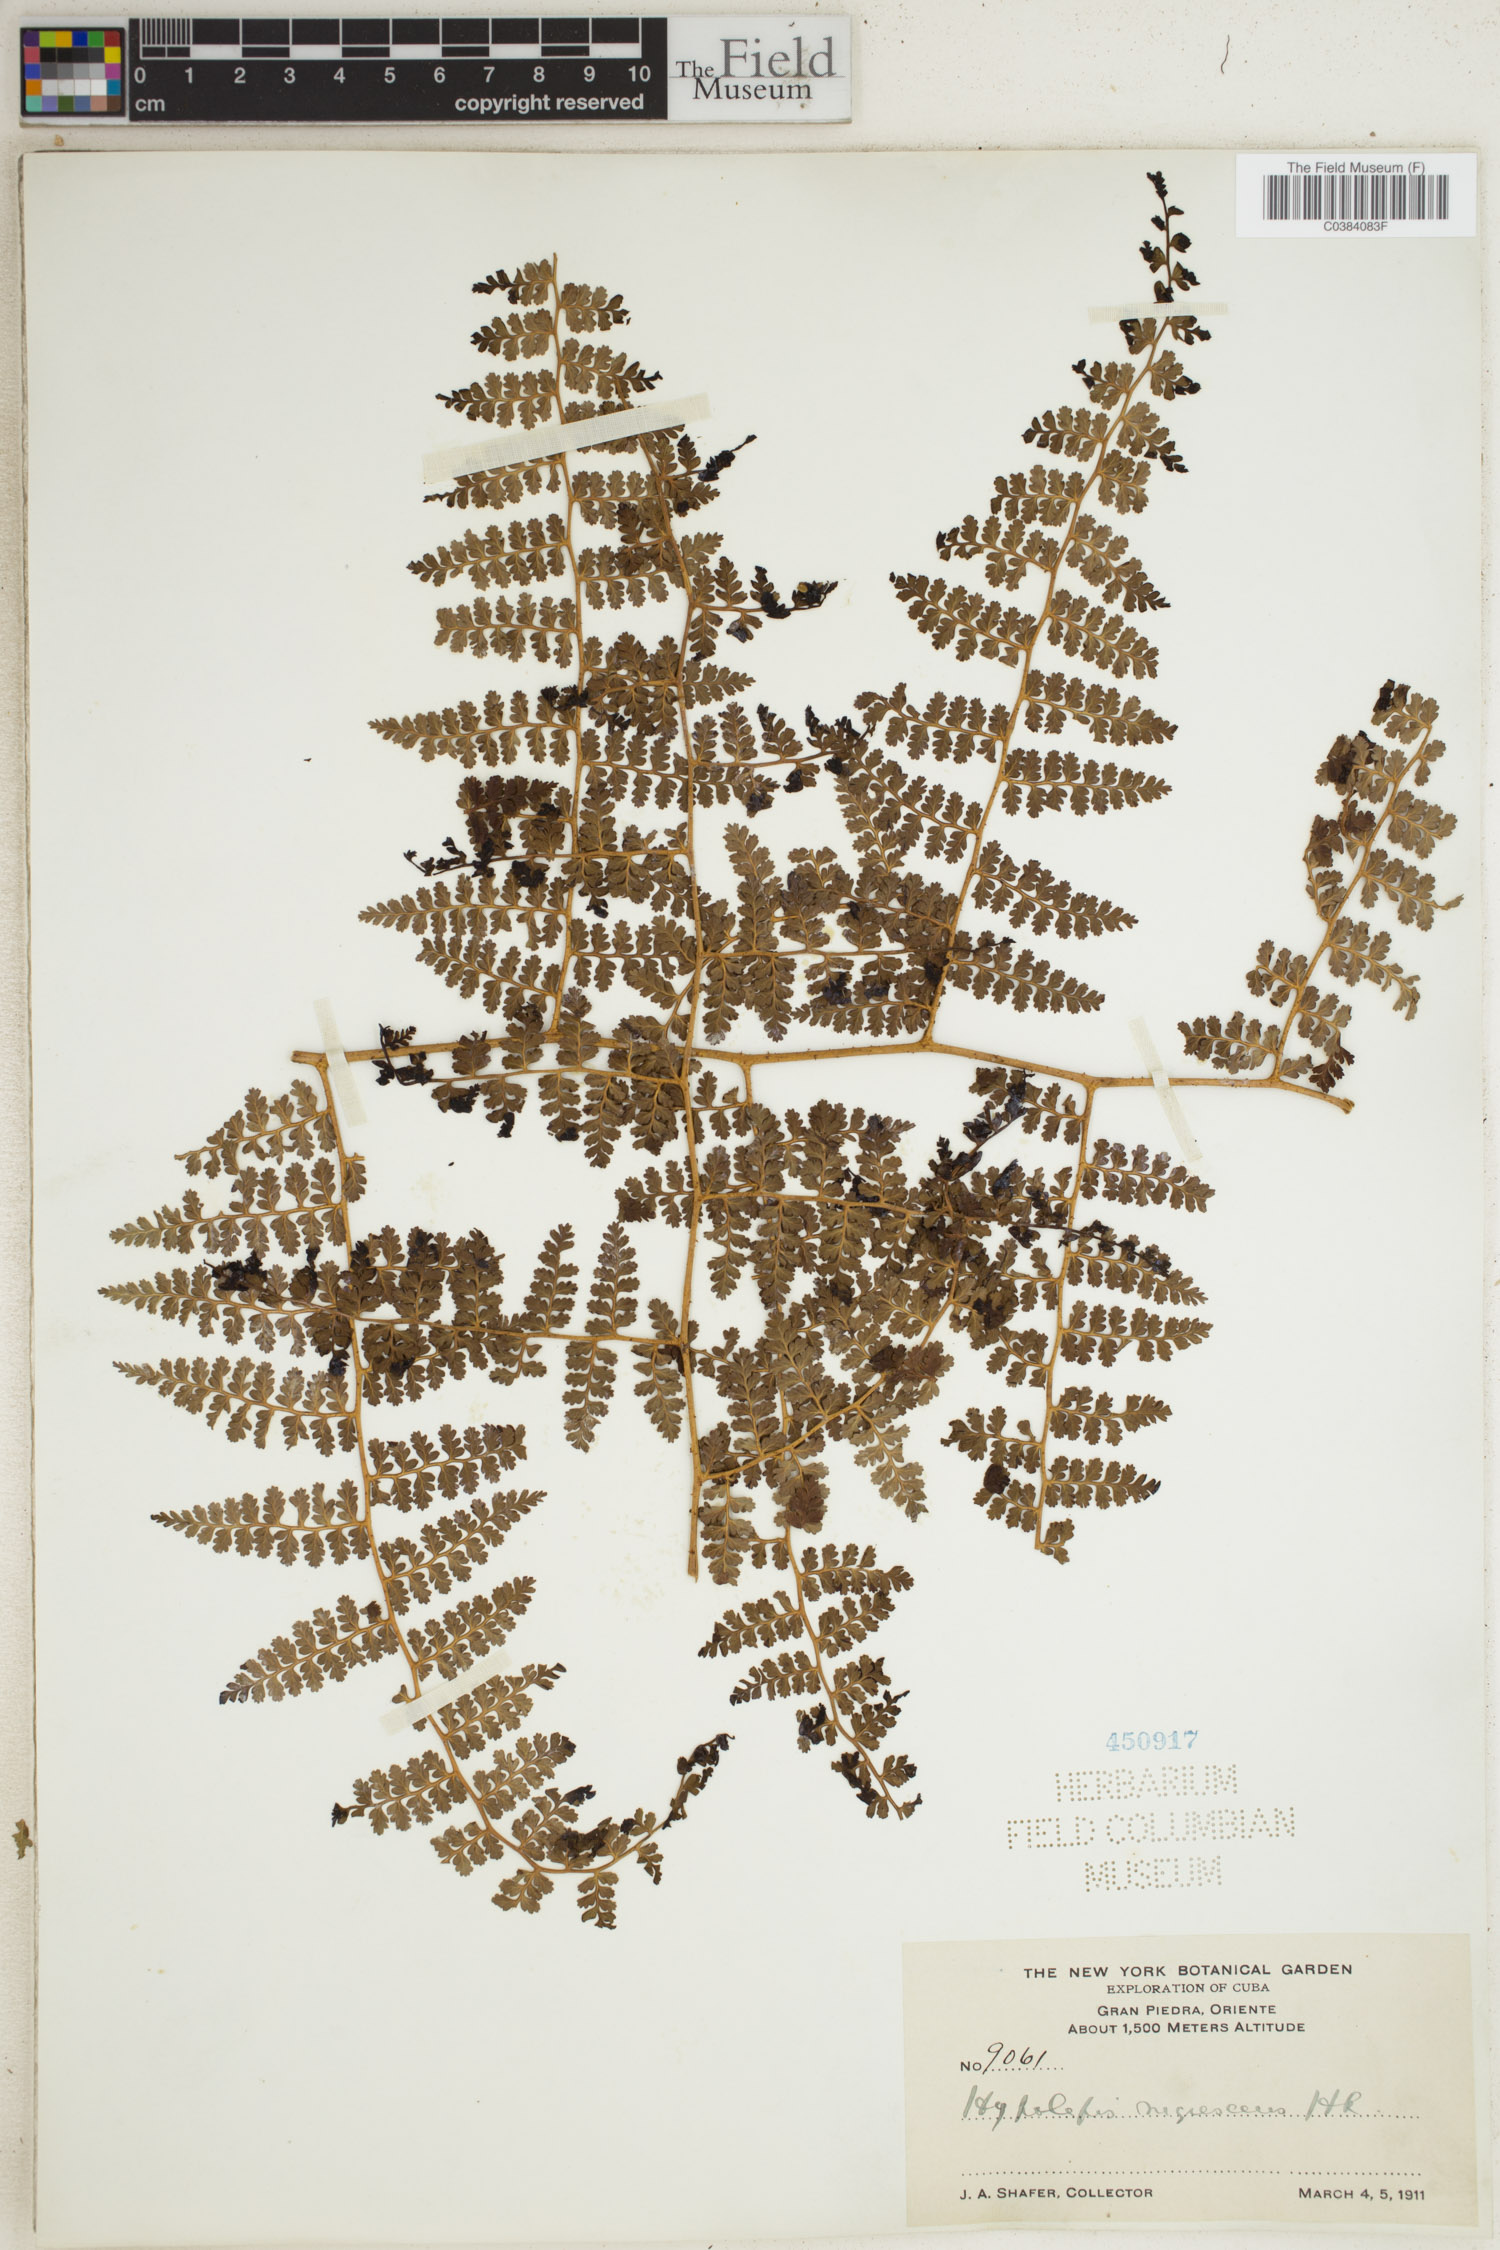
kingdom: Plantae
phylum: Tracheophyta
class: Polypodiopsida
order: Polypodiales
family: Dennstaedtiaceae
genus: Hiya
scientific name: Hiya nigrescens
